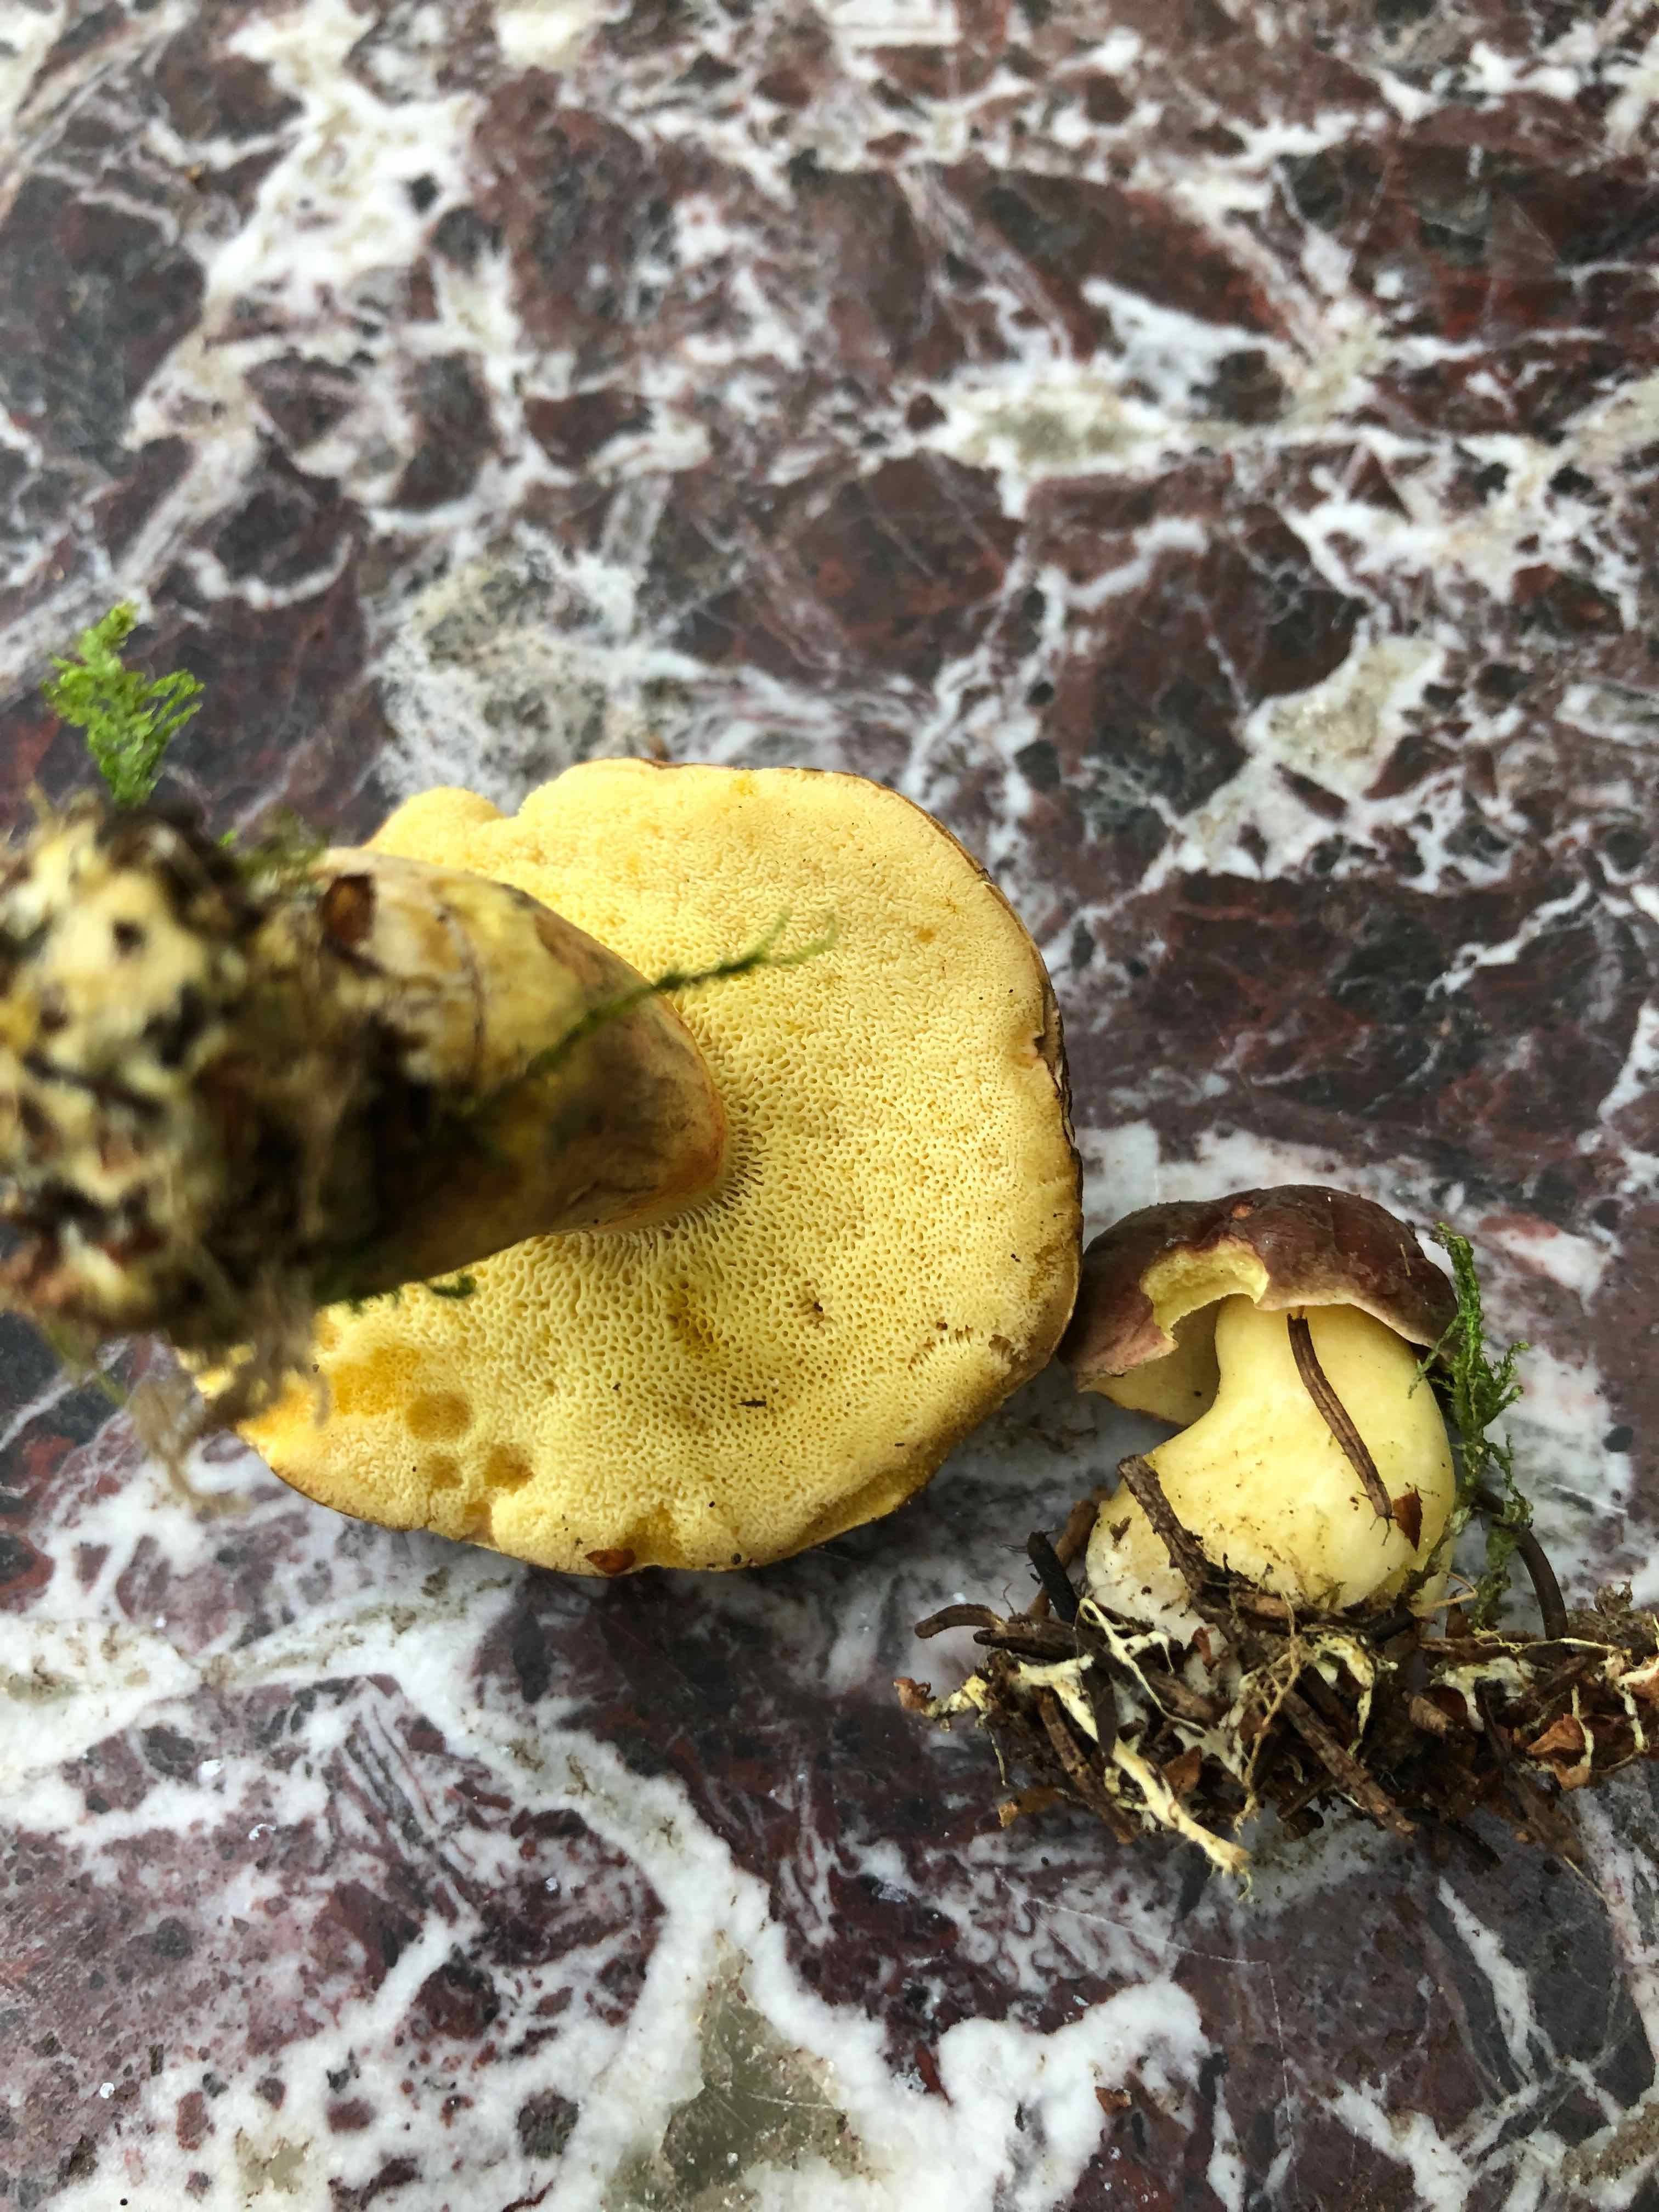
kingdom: Fungi
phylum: Basidiomycota
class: Agaricomycetes
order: Boletales
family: Boletaceae
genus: Xerocomellus
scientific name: Xerocomellus
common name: dværgrørhat
